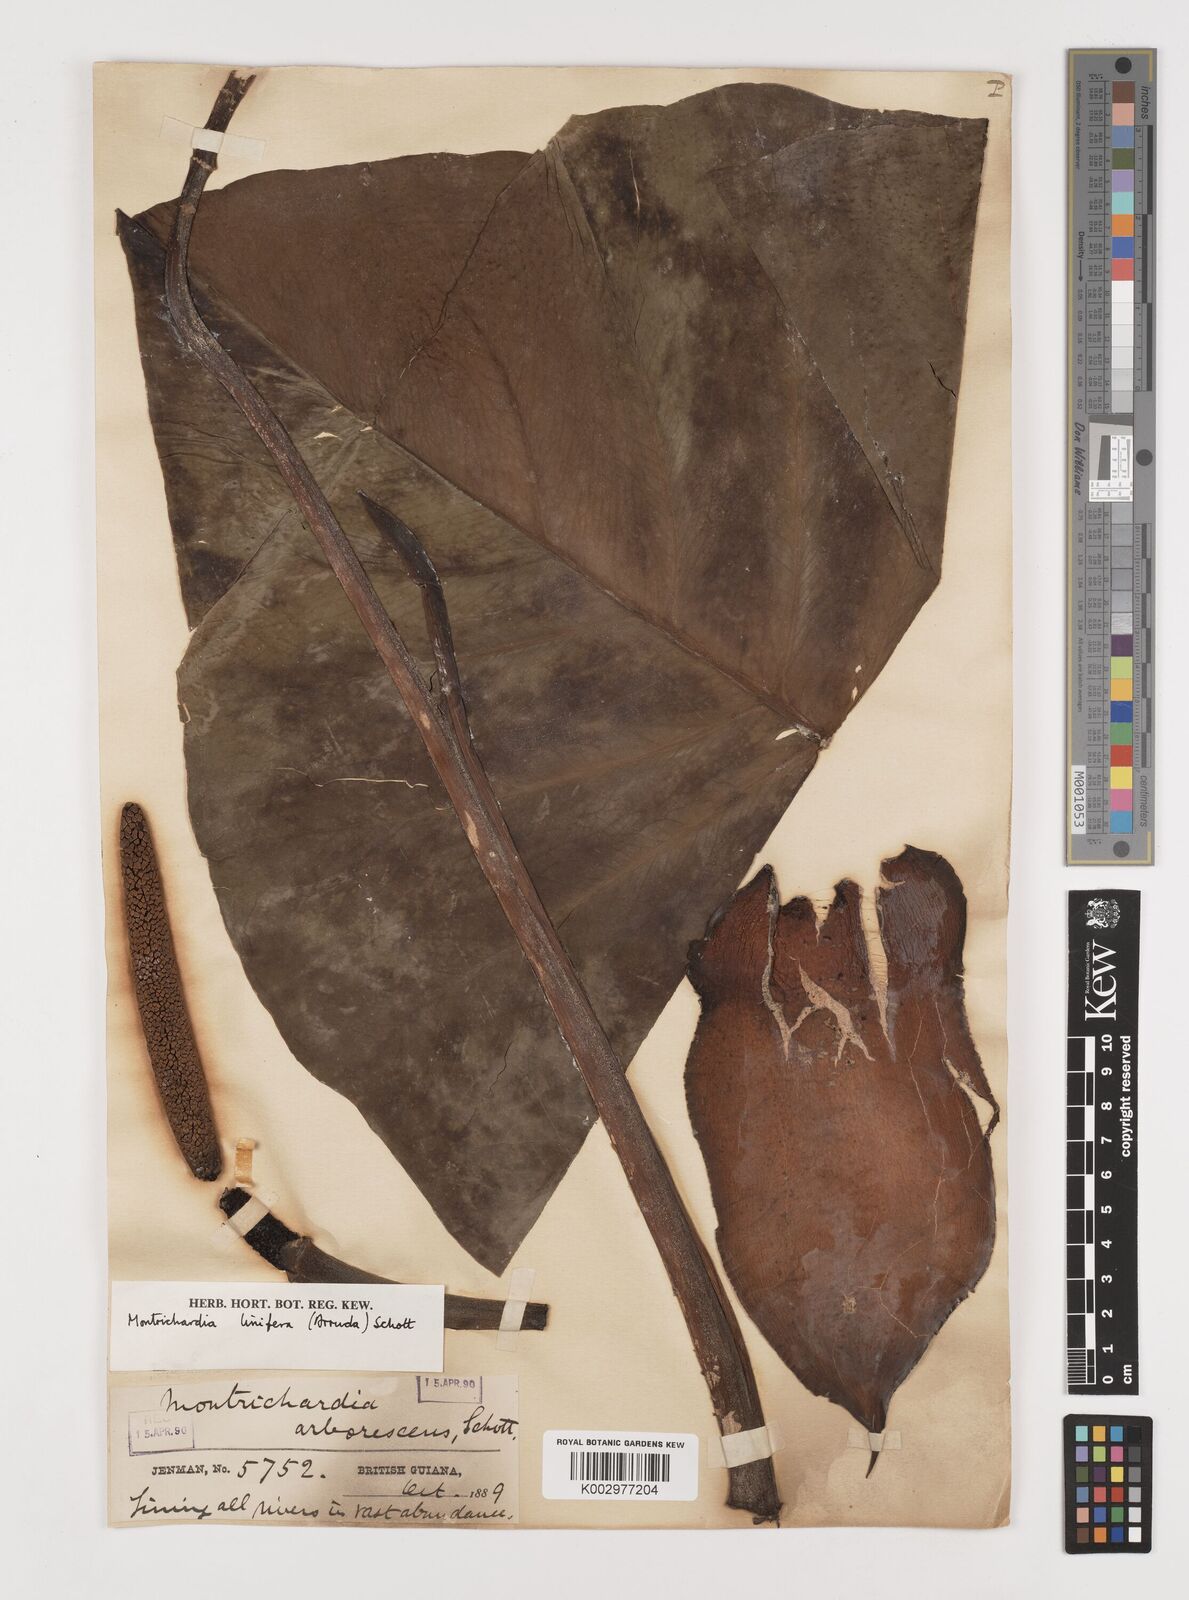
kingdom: Plantae
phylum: Tracheophyta
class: Liliopsida
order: Alismatales
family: Araceae
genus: Montrichardia
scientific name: Montrichardia linifera
